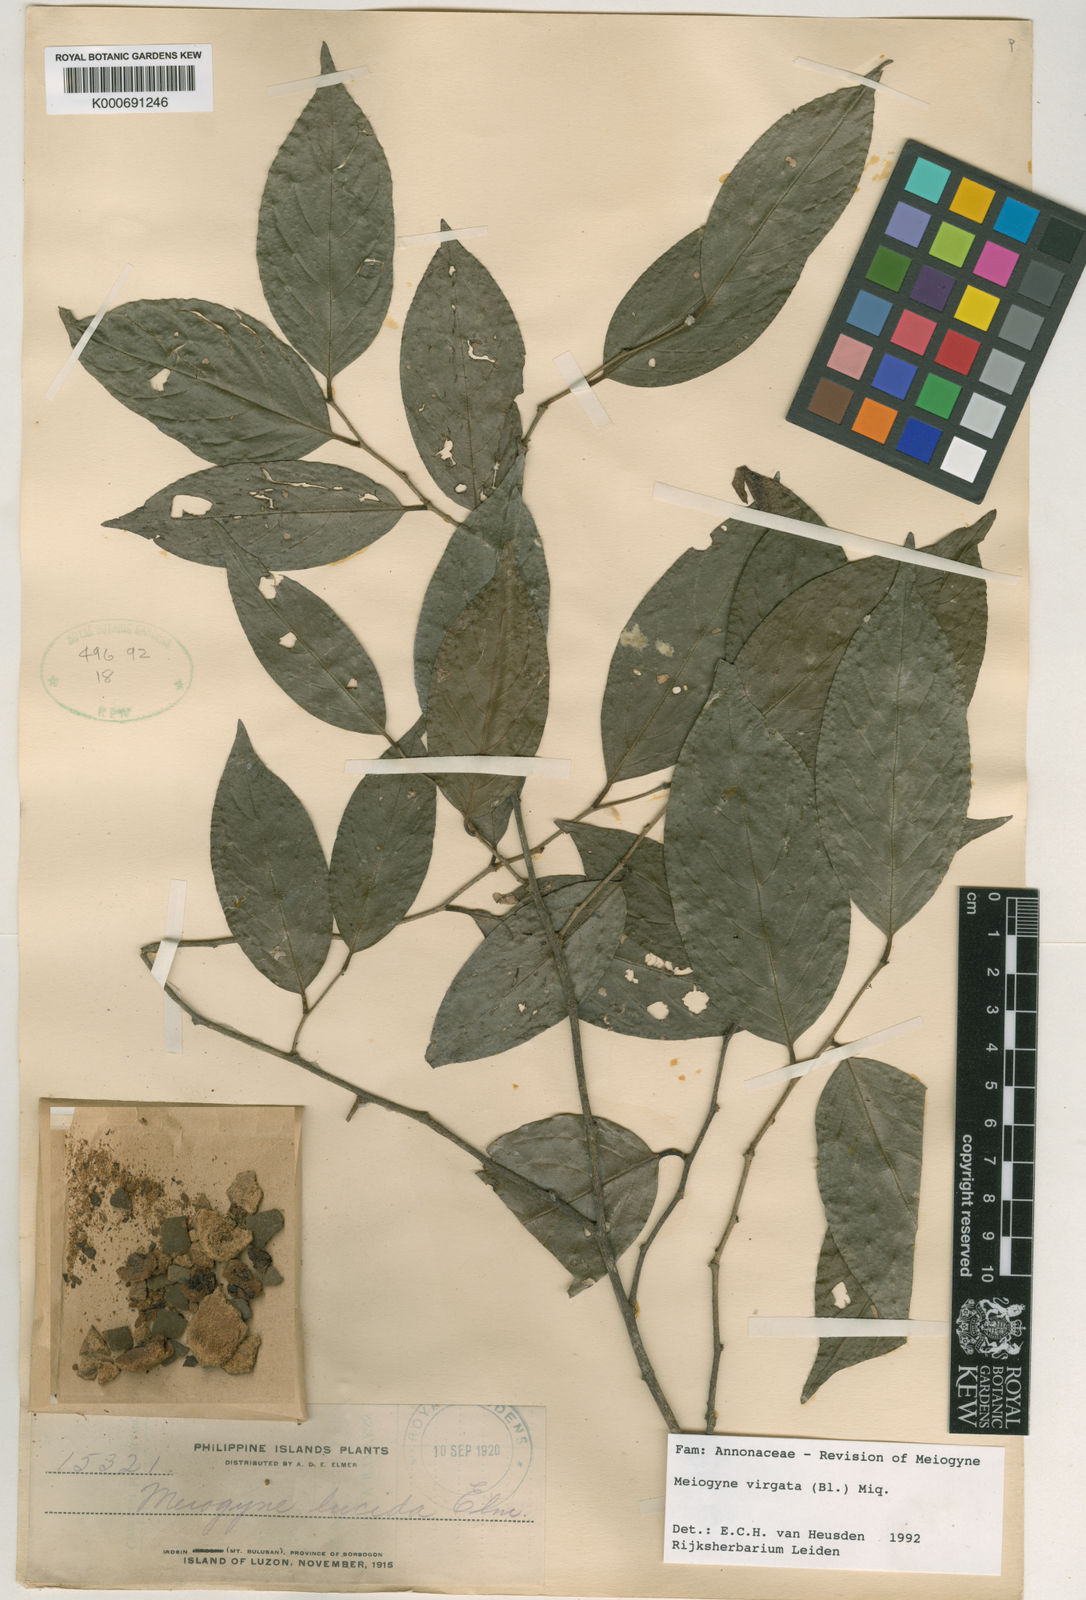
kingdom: Plantae
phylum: Tracheophyta
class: Magnoliopsida
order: Magnoliales
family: Annonaceae
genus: Meiogyne
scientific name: Meiogyne virgata
